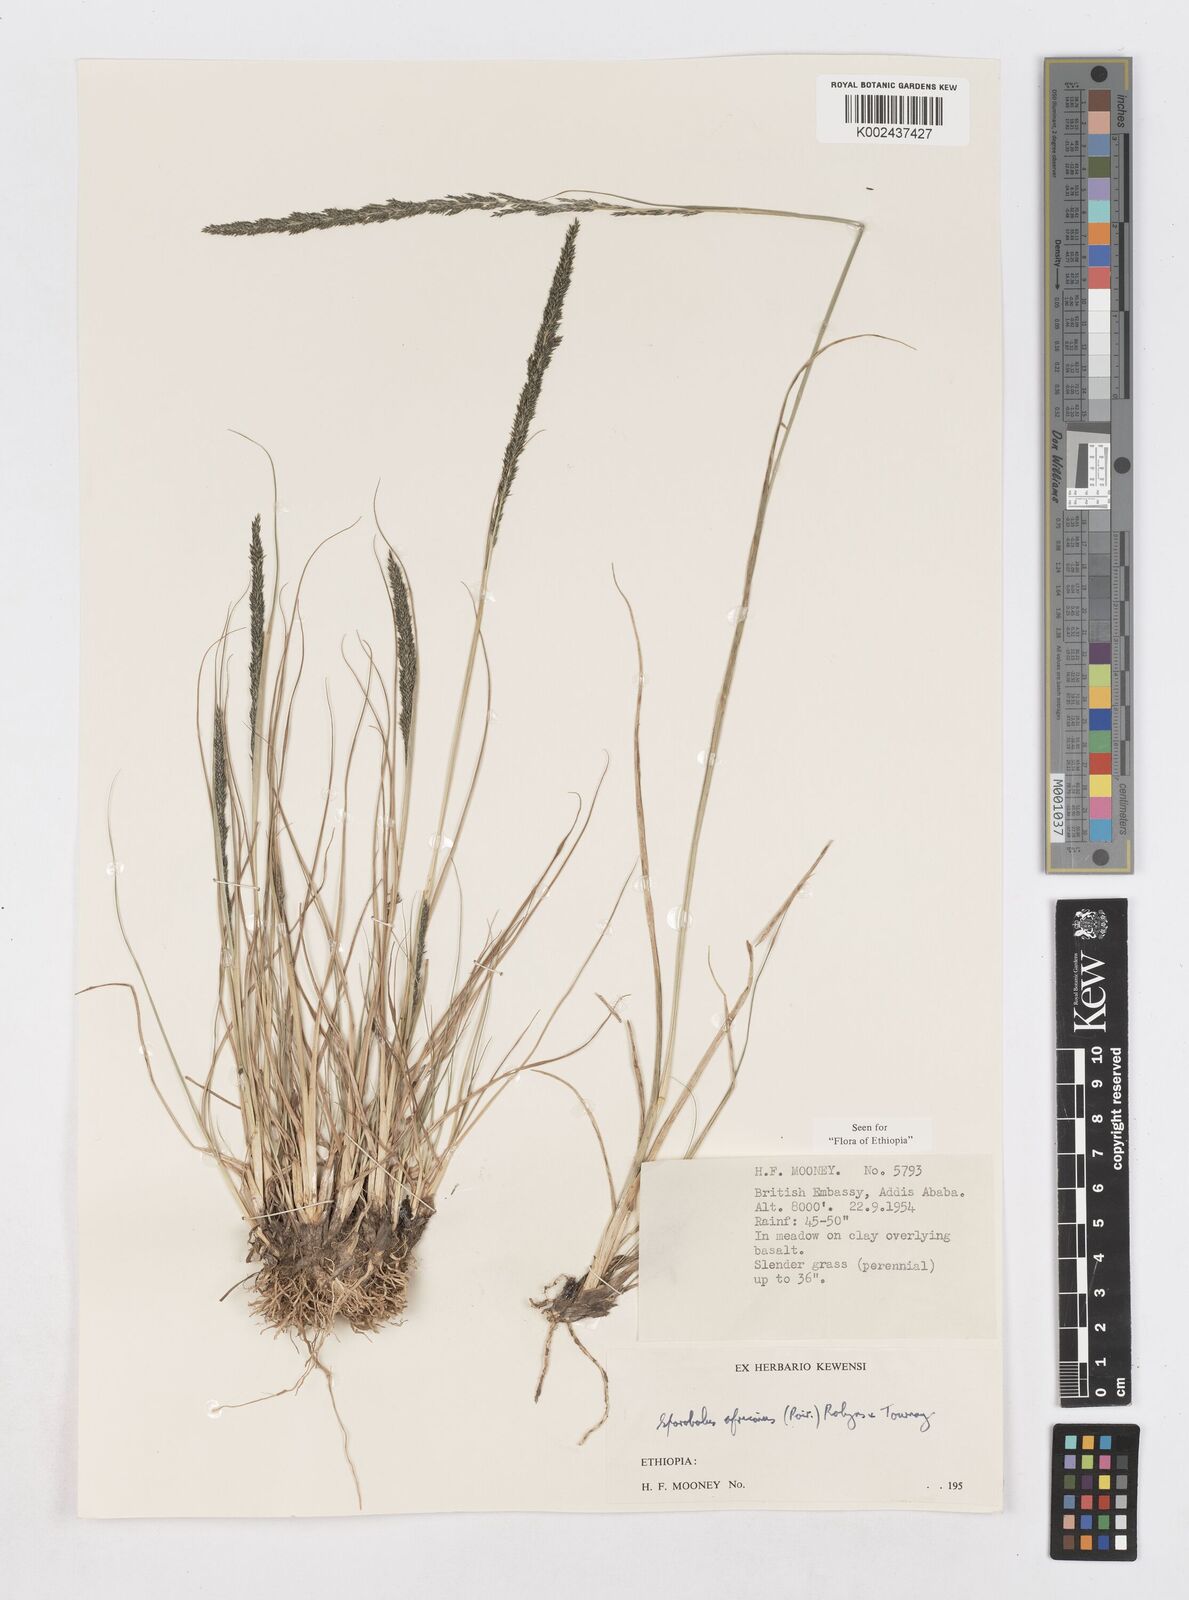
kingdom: Plantae
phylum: Tracheophyta
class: Liliopsida
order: Poales
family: Poaceae
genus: Sporobolus
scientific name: Sporobolus africanus
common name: African dropseed
